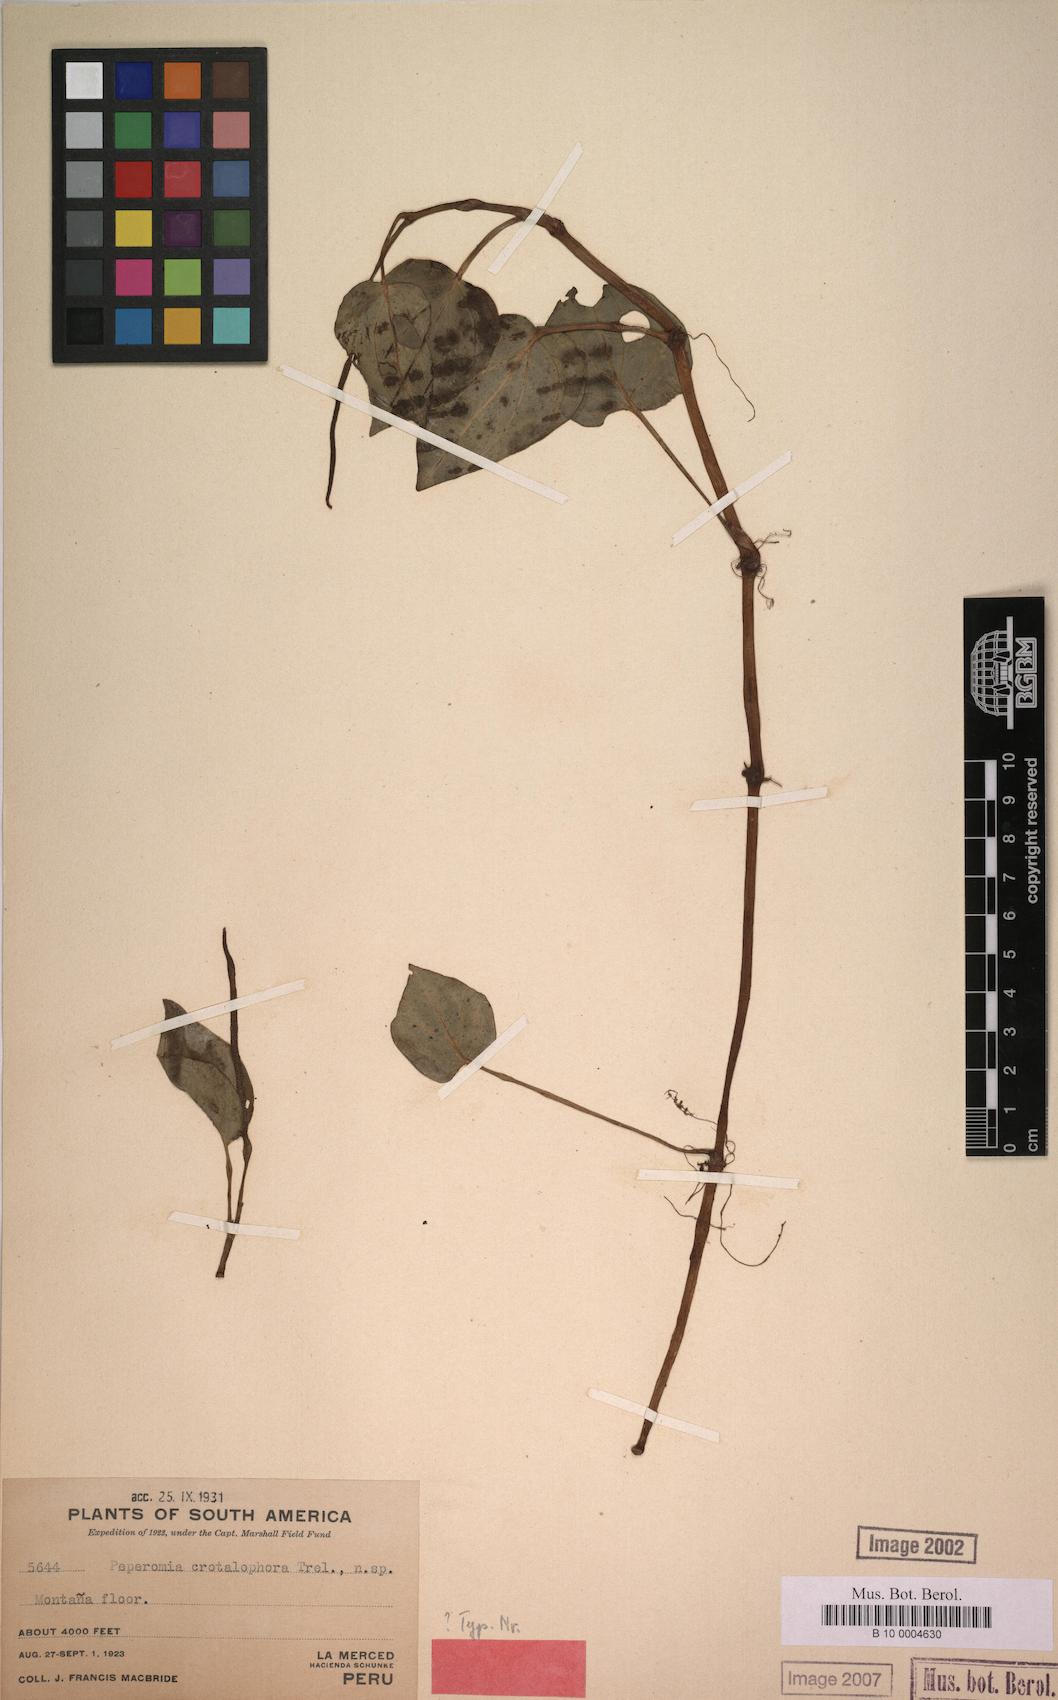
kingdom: Plantae
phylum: Tracheophyta
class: Magnoliopsida
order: Piperales
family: Piperaceae
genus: Peperomia
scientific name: Peperomia crotalophora
